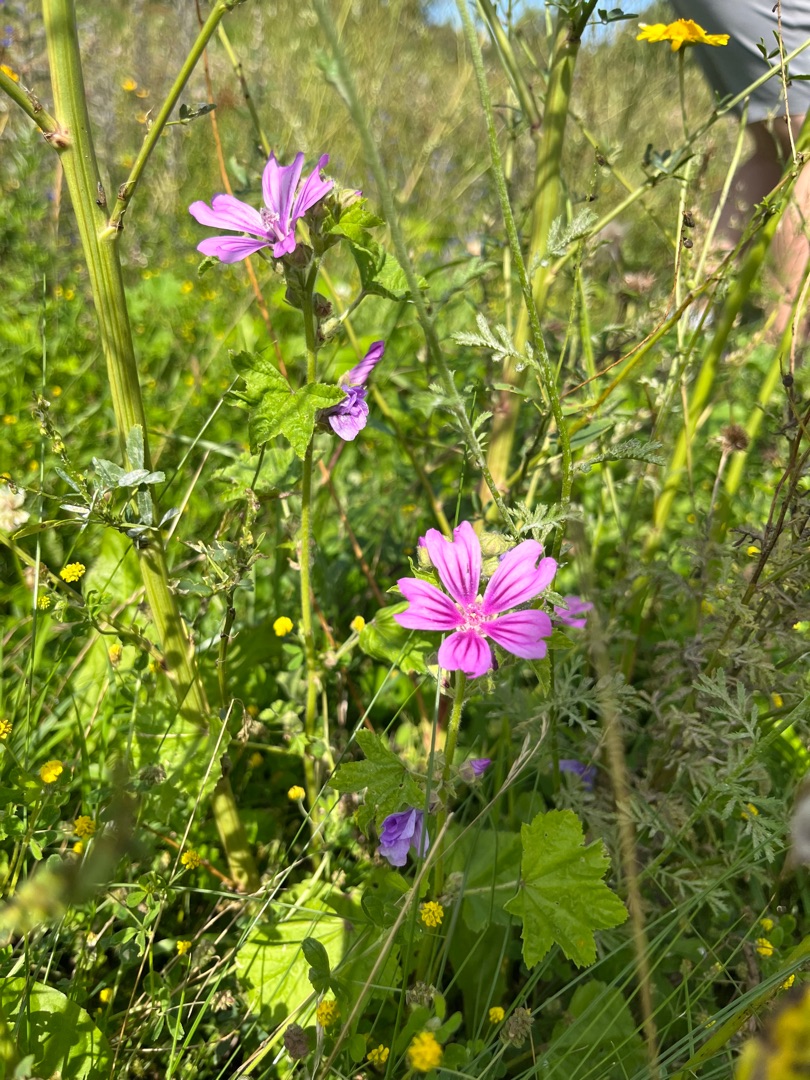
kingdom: Plantae
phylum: Tracheophyta
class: Magnoliopsida
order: Malvales
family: Malvaceae
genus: Malva
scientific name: Malva sylvestris
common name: Almindelig katost
